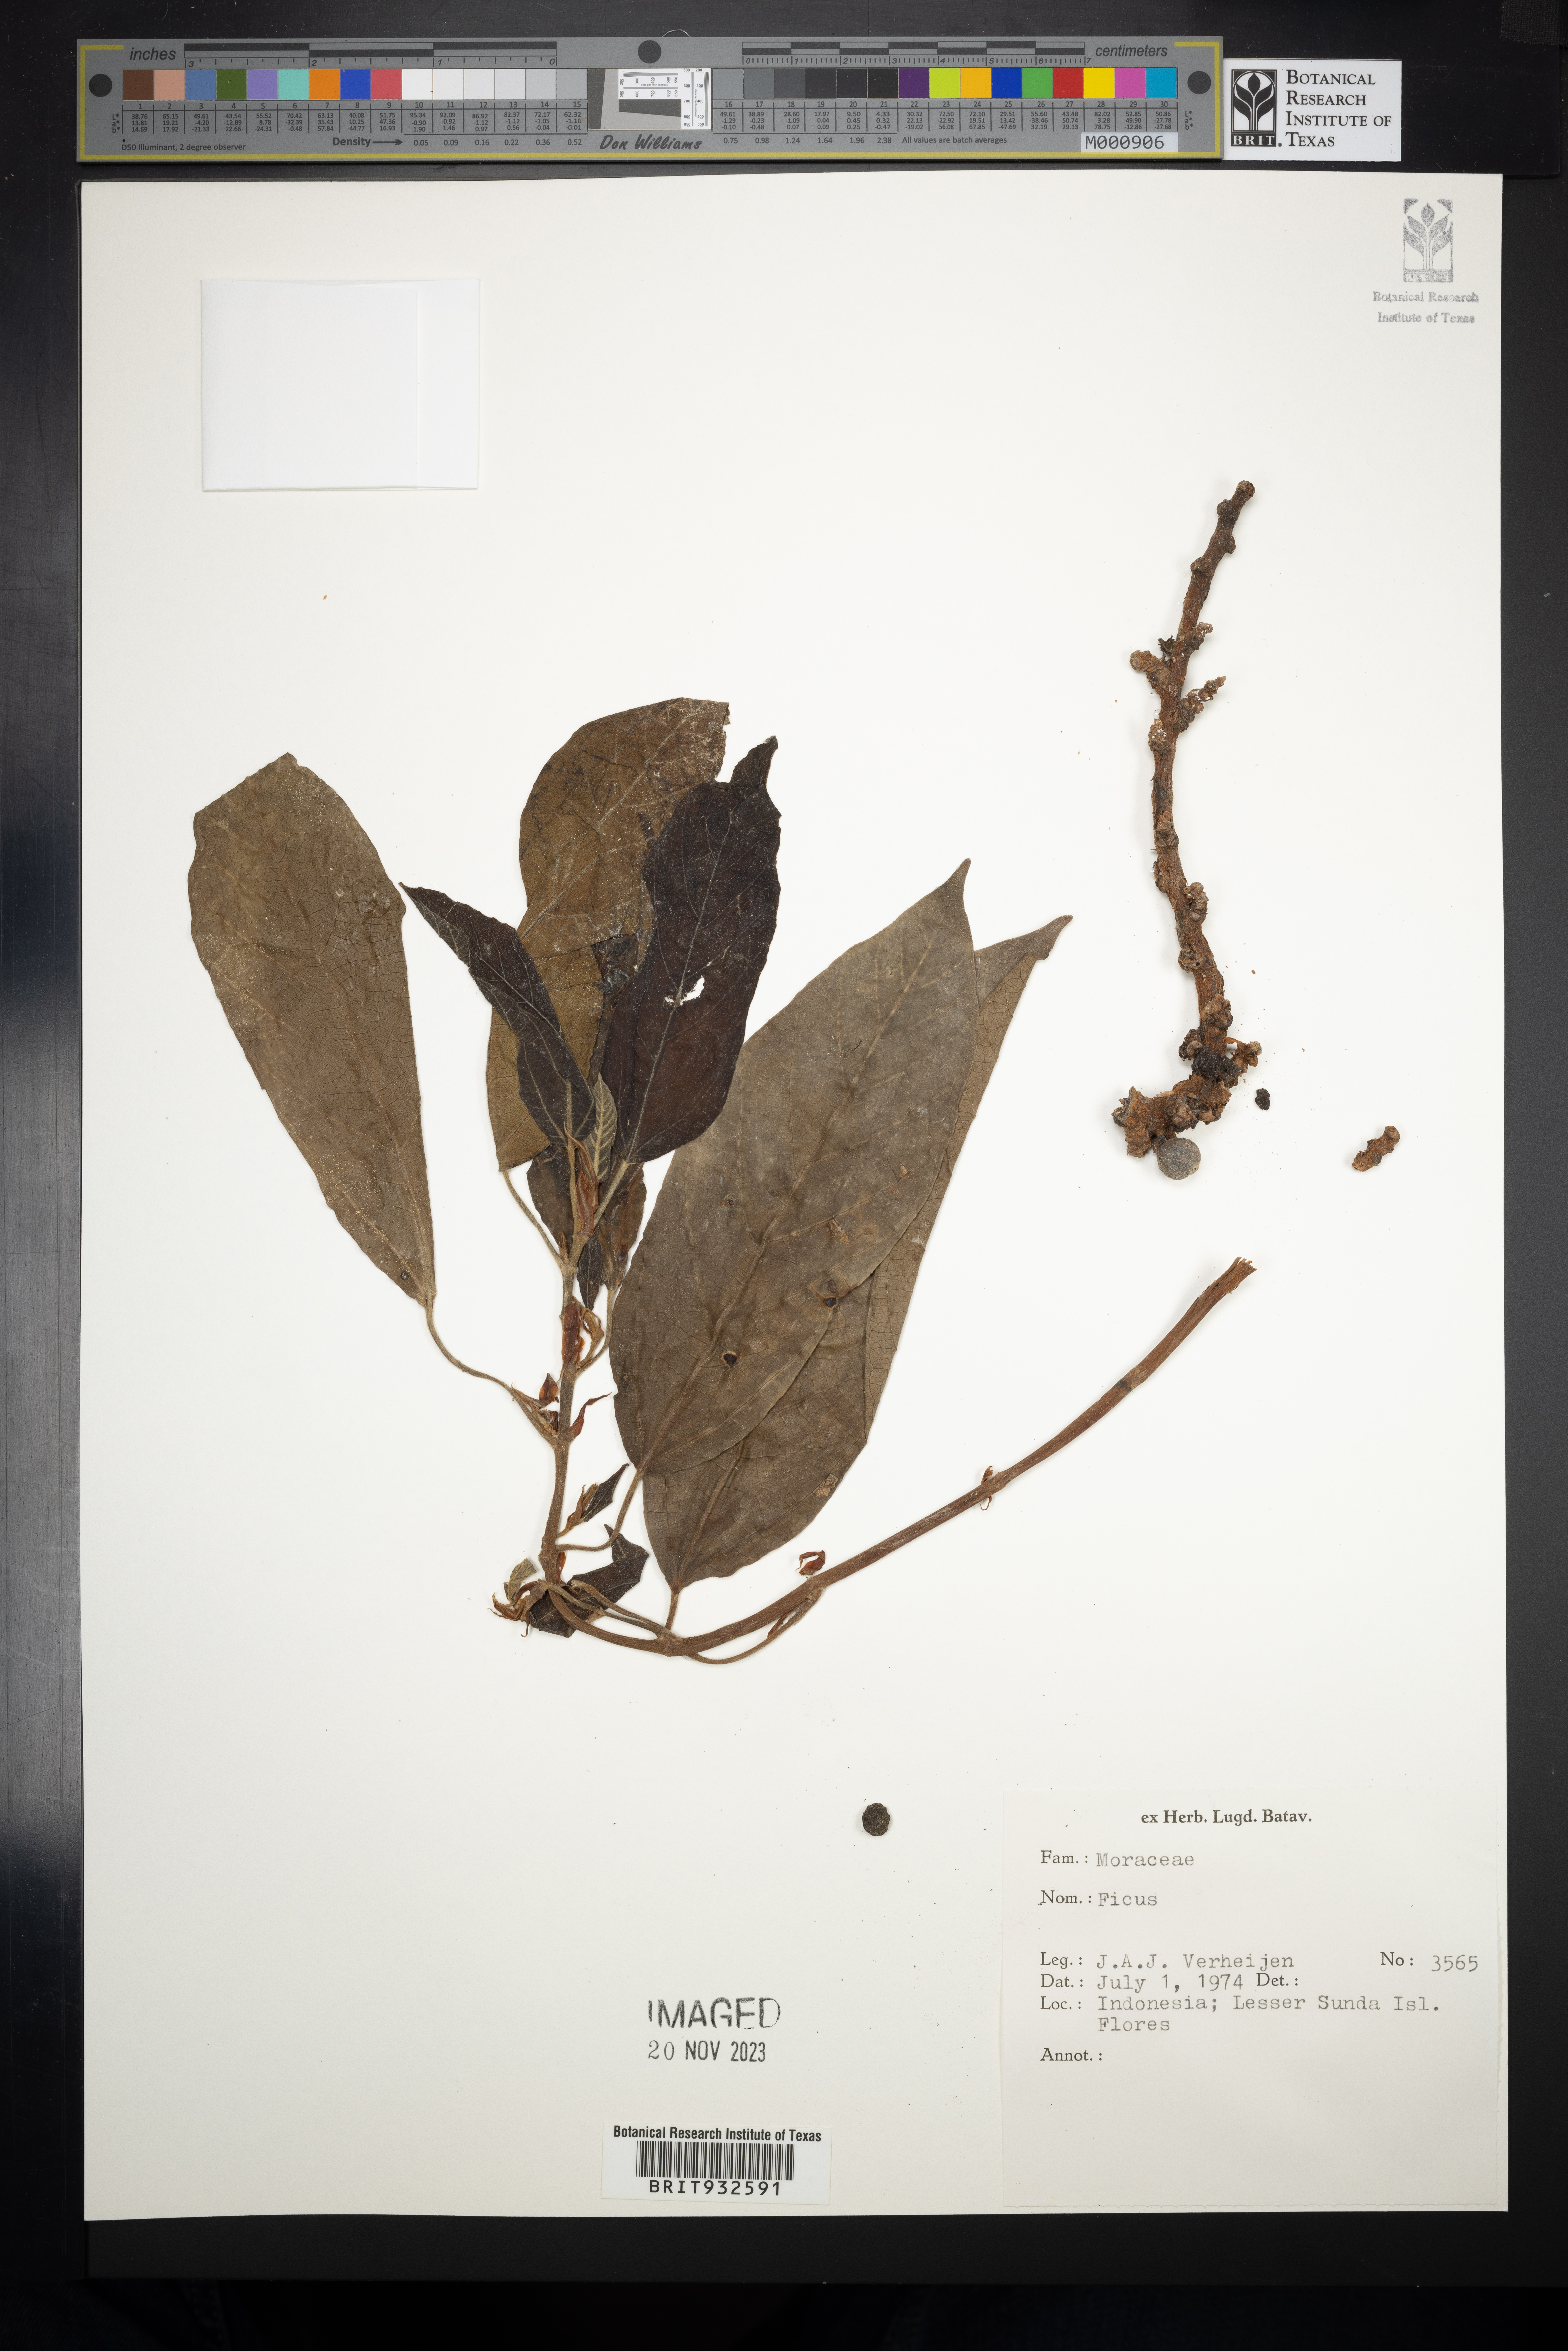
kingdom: Plantae
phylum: Tracheophyta
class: Magnoliopsida
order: Rosales
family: Moraceae
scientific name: Moraceae
